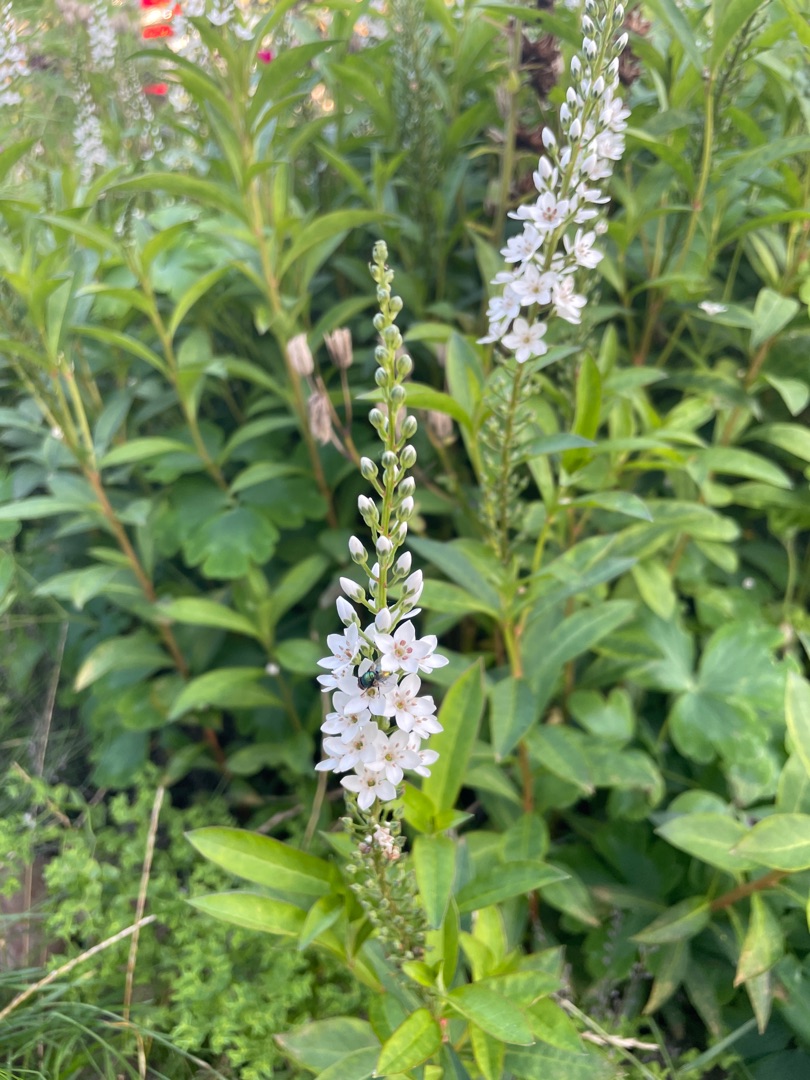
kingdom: Plantae
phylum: Tracheophyta
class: Magnoliopsida
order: Ericales
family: Primulaceae
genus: Lysimachia
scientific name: Lysimachia clethroides
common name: Hvid fredløs
